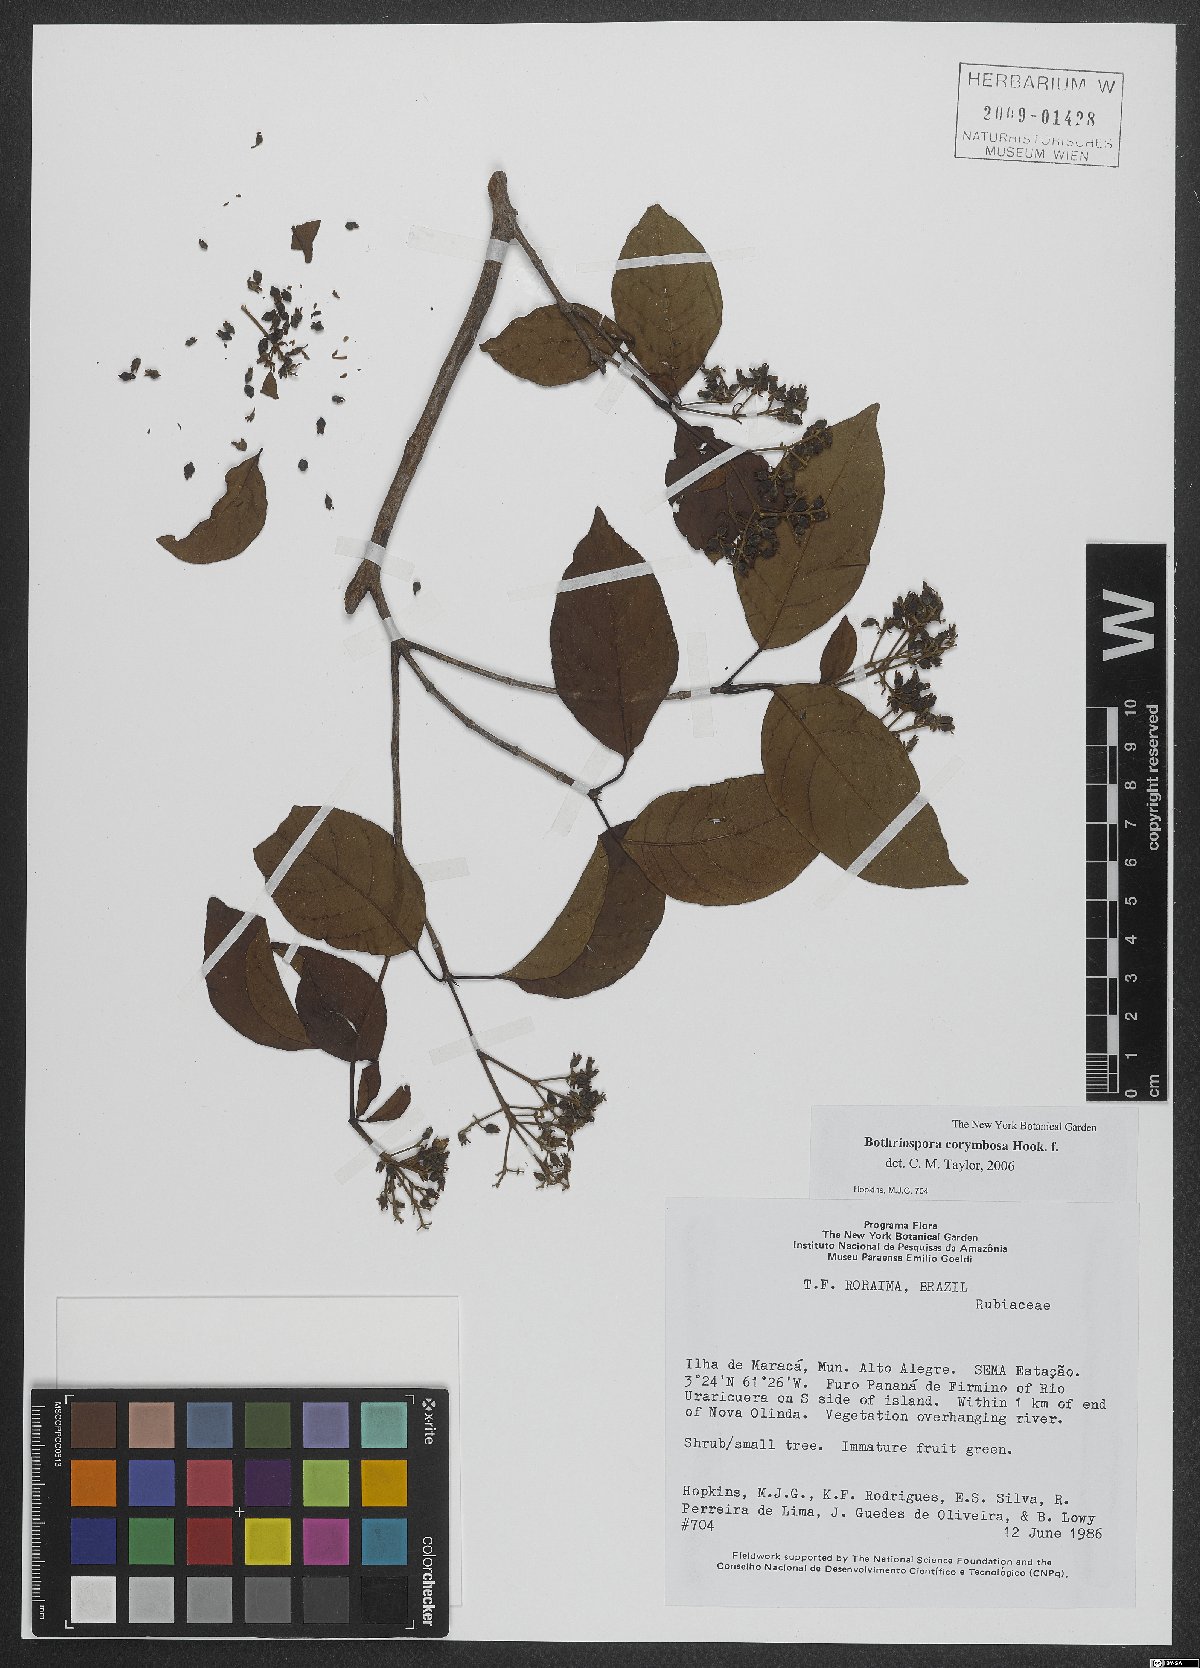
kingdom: Plantae
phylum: Tracheophyta
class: Magnoliopsida
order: Gentianales
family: Rubiaceae
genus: Bothriospora
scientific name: Bothriospora corymbosa
